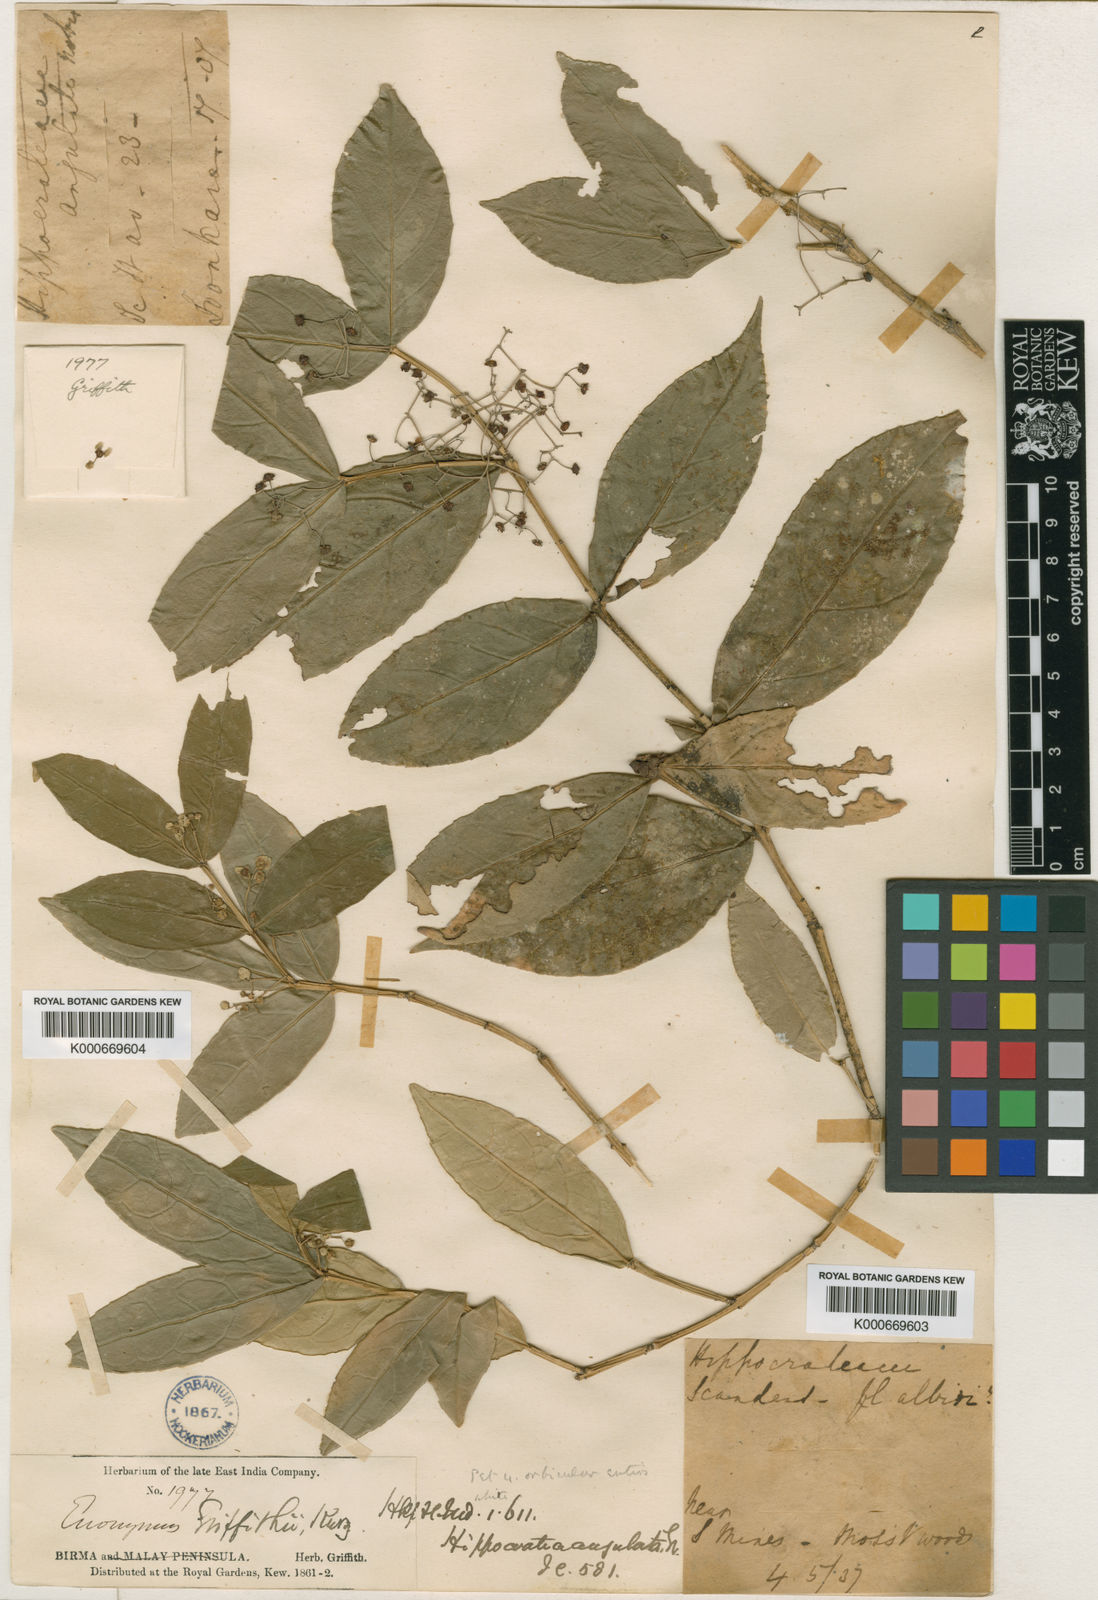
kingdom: Plantae
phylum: Tracheophyta
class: Magnoliopsida
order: Celastrales
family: Celastraceae
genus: Euonymus
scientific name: Euonymus vagans
